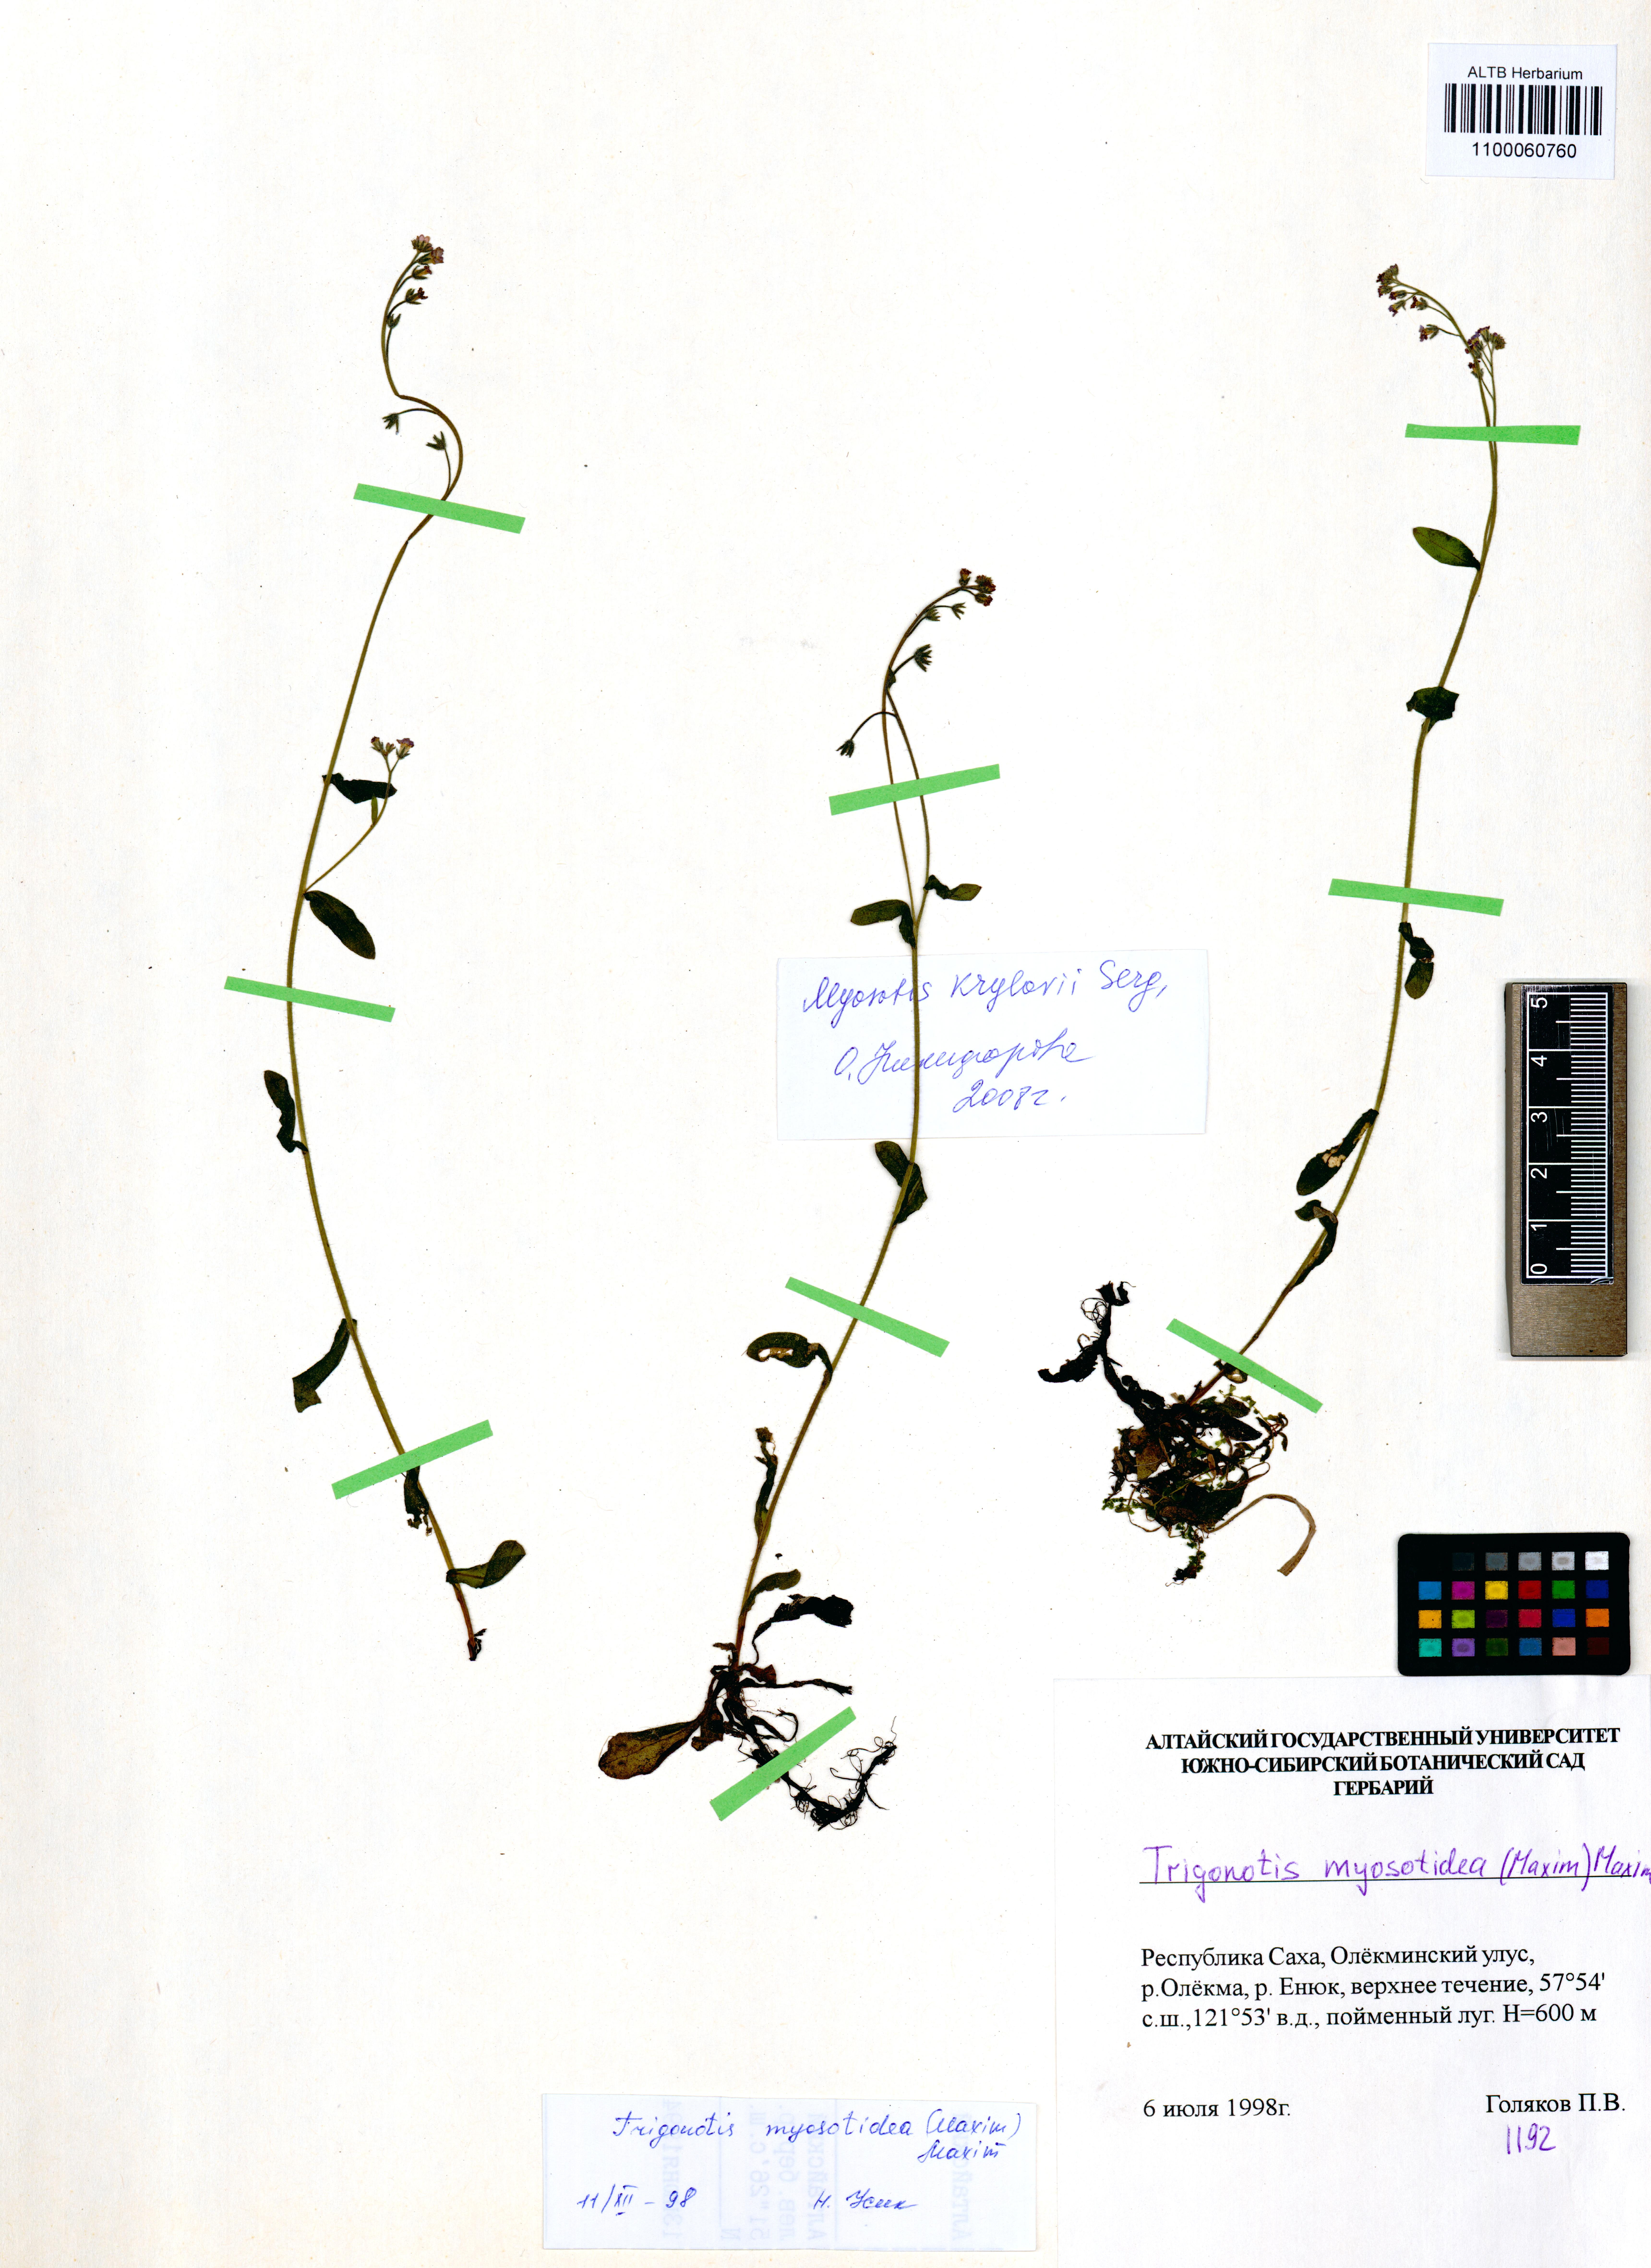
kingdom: Plantae
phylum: Tracheophyta
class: Magnoliopsida
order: Boraginales
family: Boraginaceae
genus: Trigonotis
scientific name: Trigonotis myosotidea
